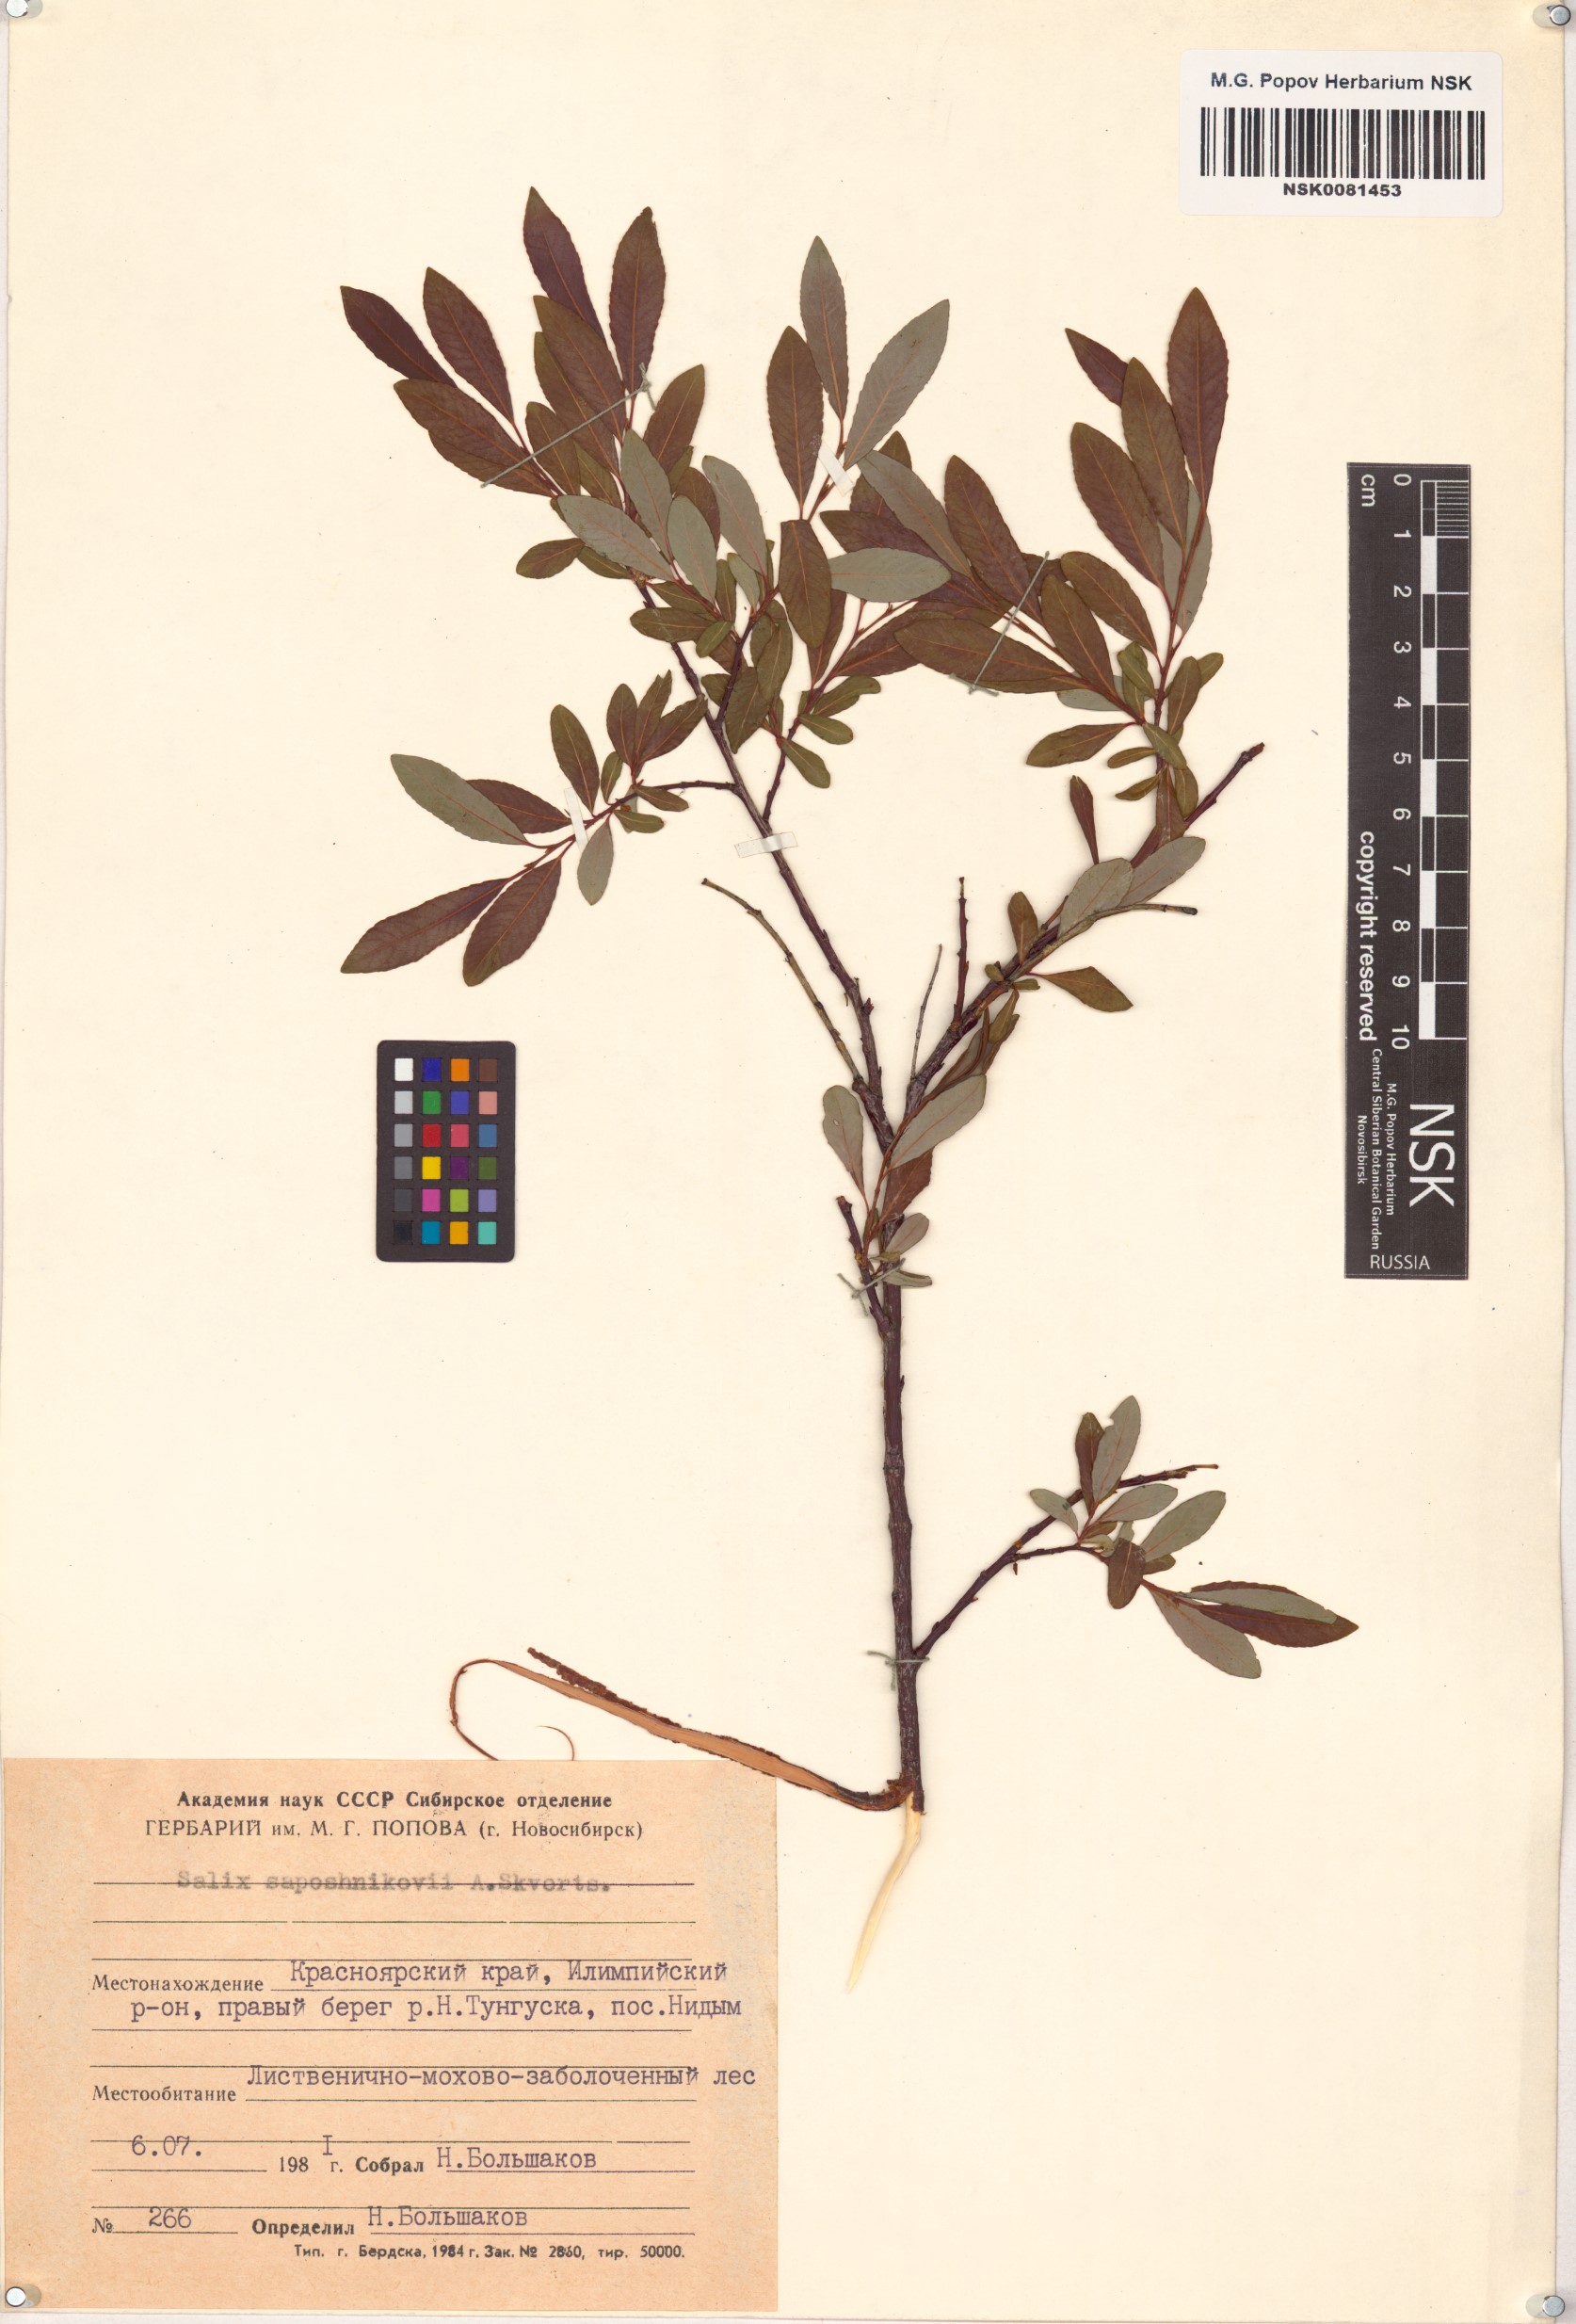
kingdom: Plantae
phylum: Tracheophyta
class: Magnoliopsida
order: Malpighiales
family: Salicaceae
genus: Salix
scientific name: Salix saposhnikovii
